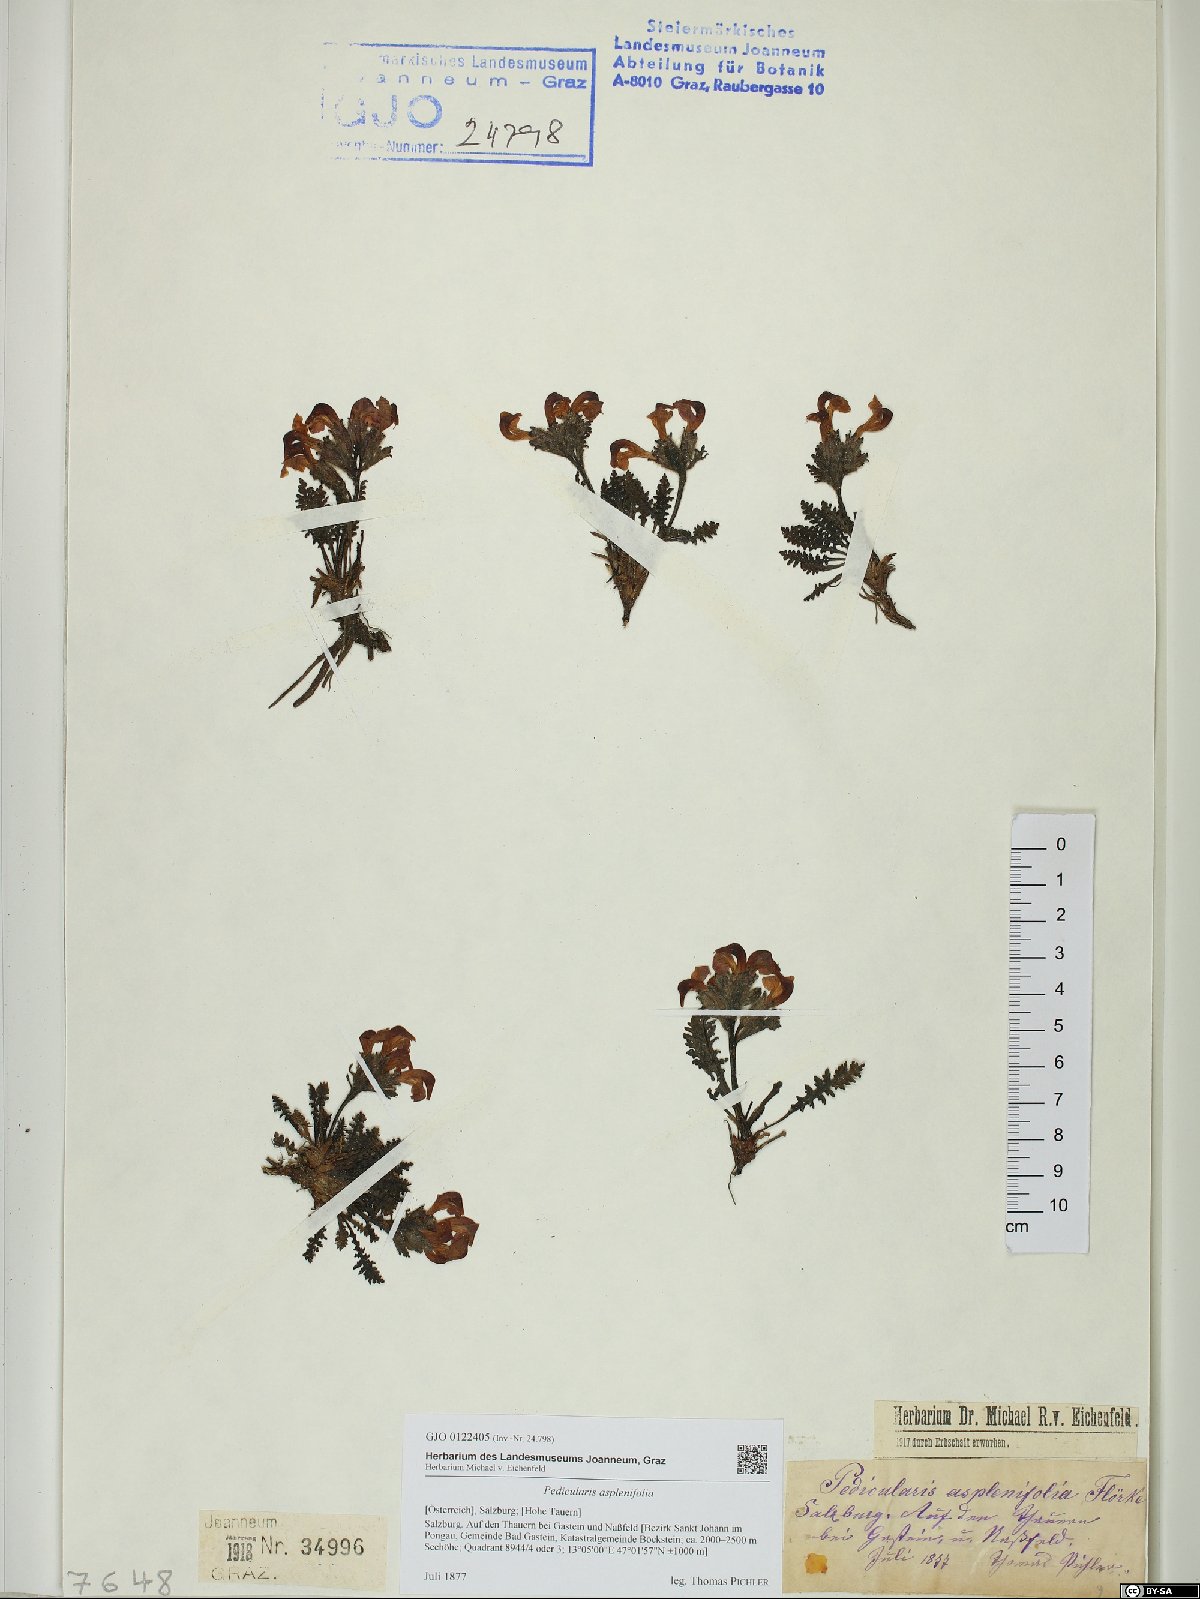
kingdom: Plantae
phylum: Tracheophyta
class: Magnoliopsida
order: Lamiales
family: Orobanchaceae
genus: Pedicularis
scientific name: Pedicularis asplenifolia
